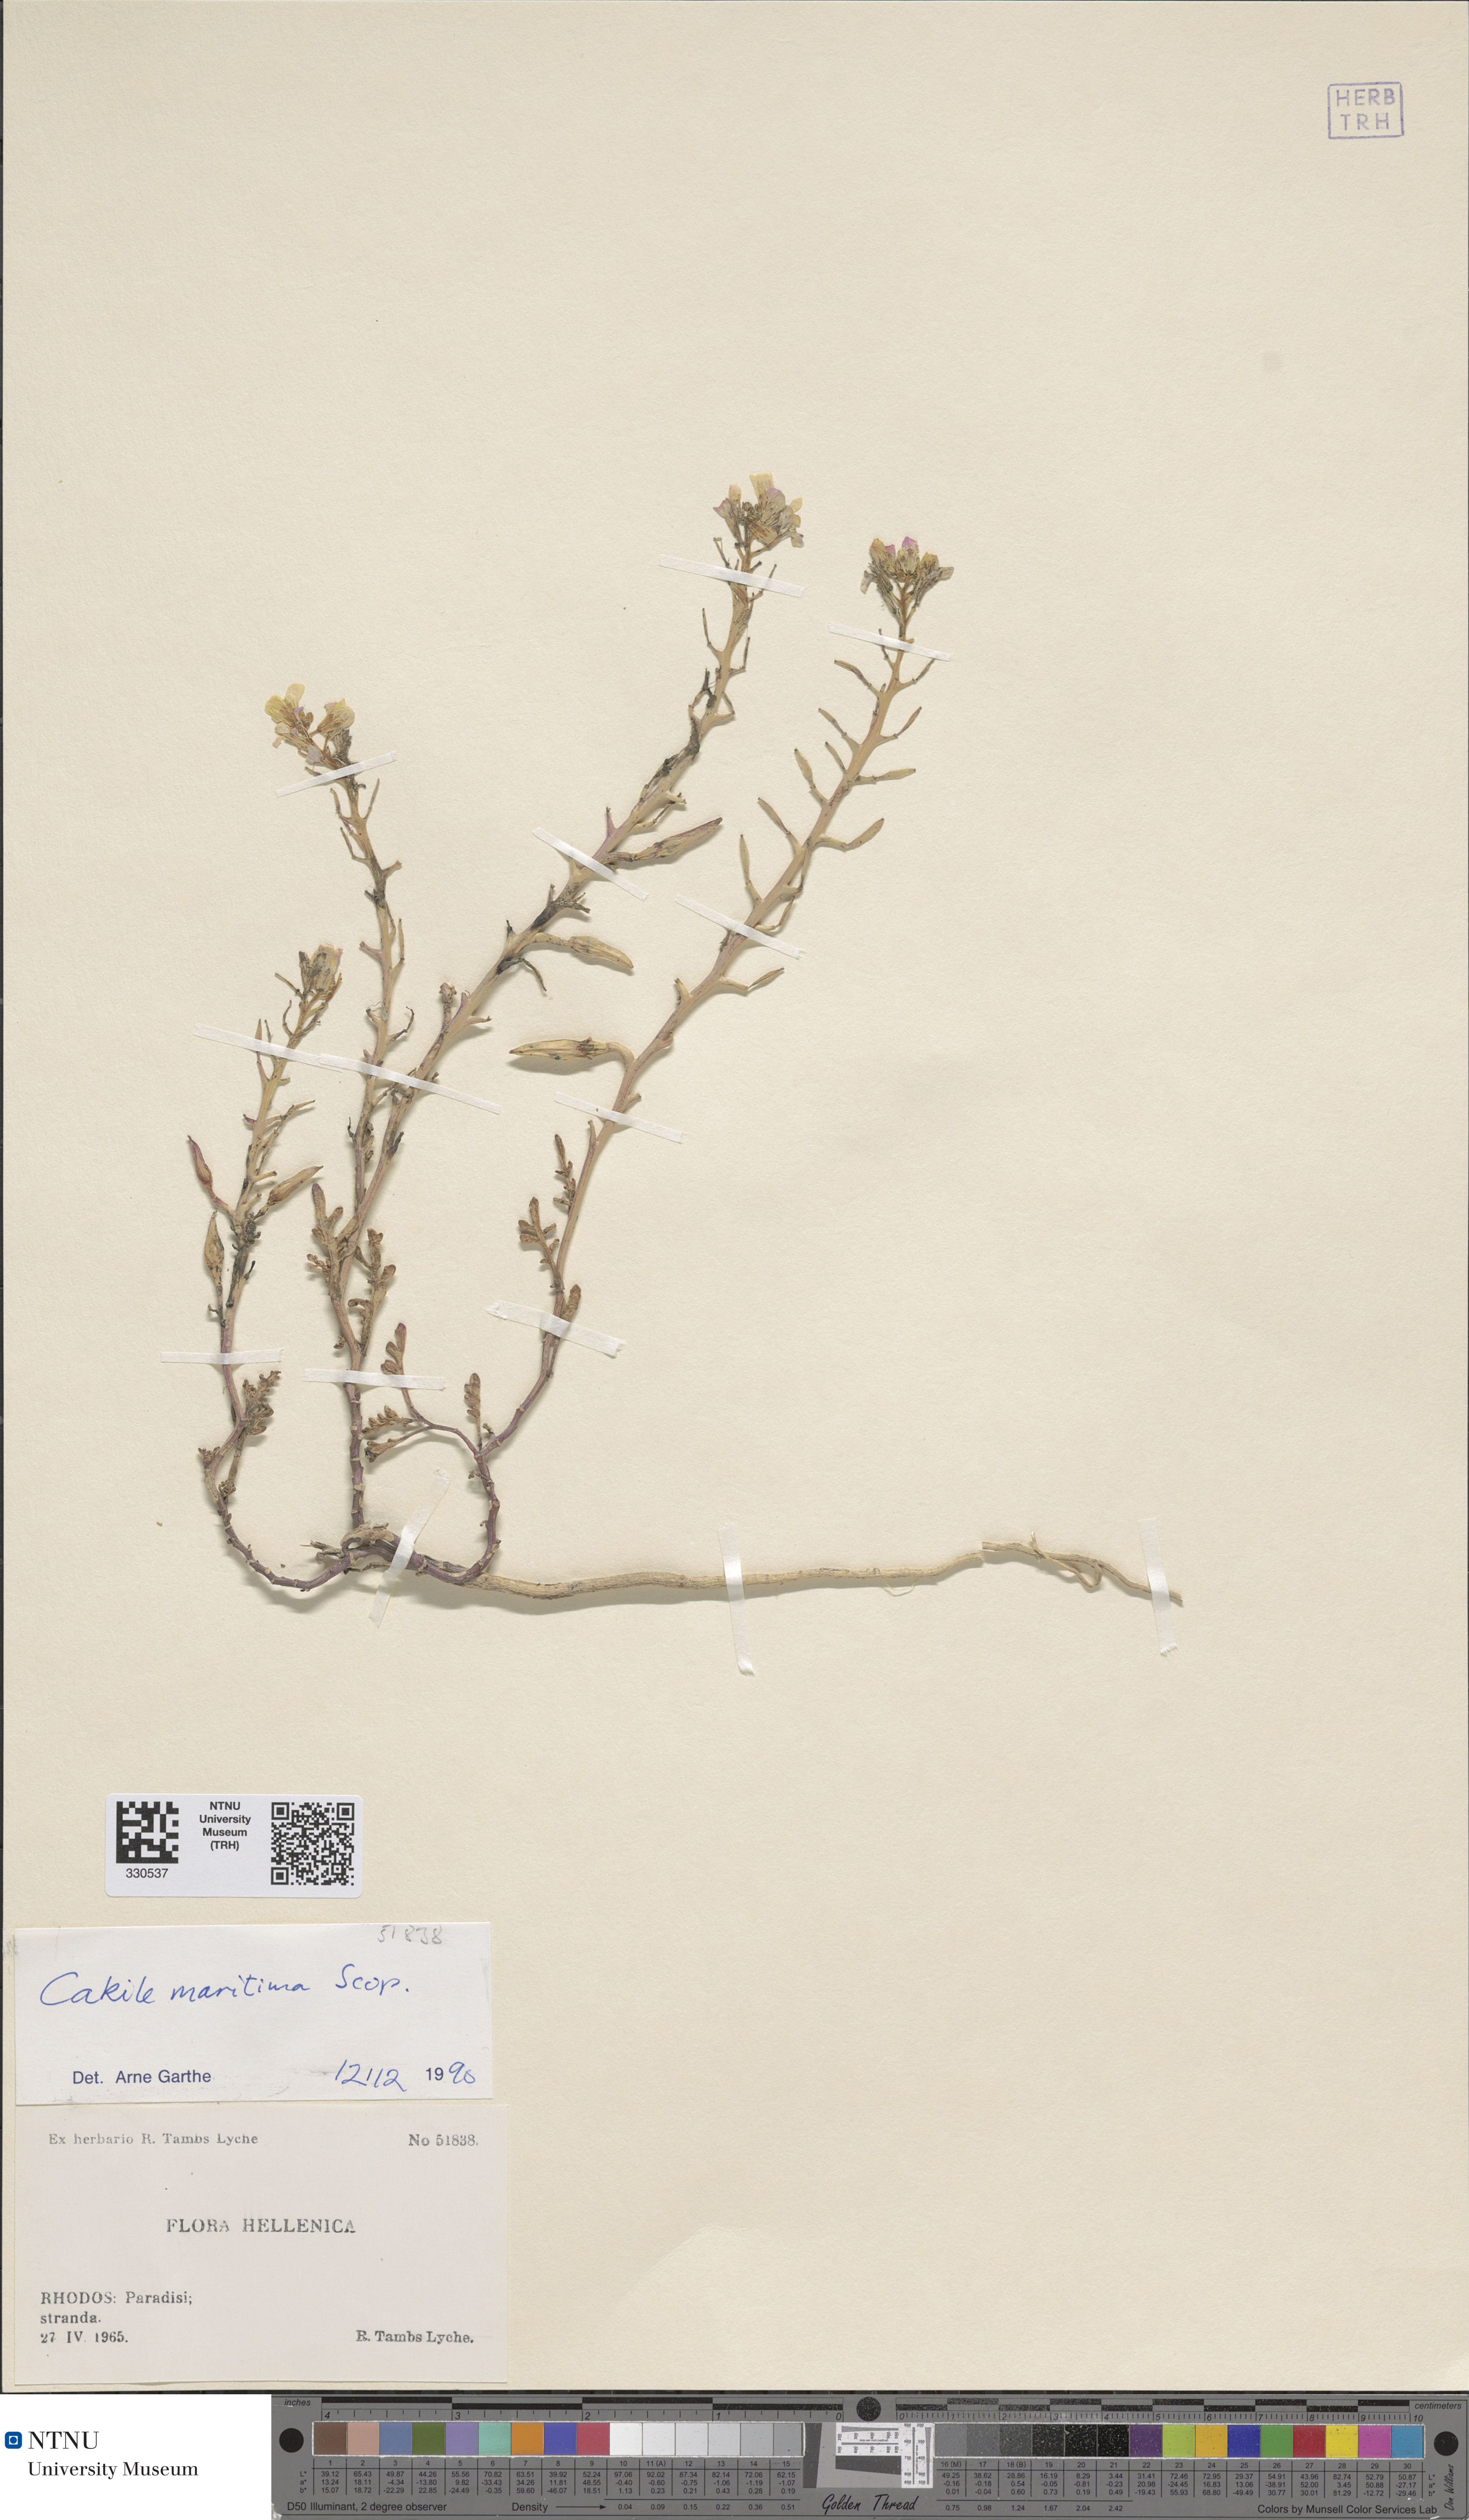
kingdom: Plantae
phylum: Tracheophyta
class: Magnoliopsida
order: Brassicales
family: Brassicaceae
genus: Cakile
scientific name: Cakile maritima
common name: Sea rocket
